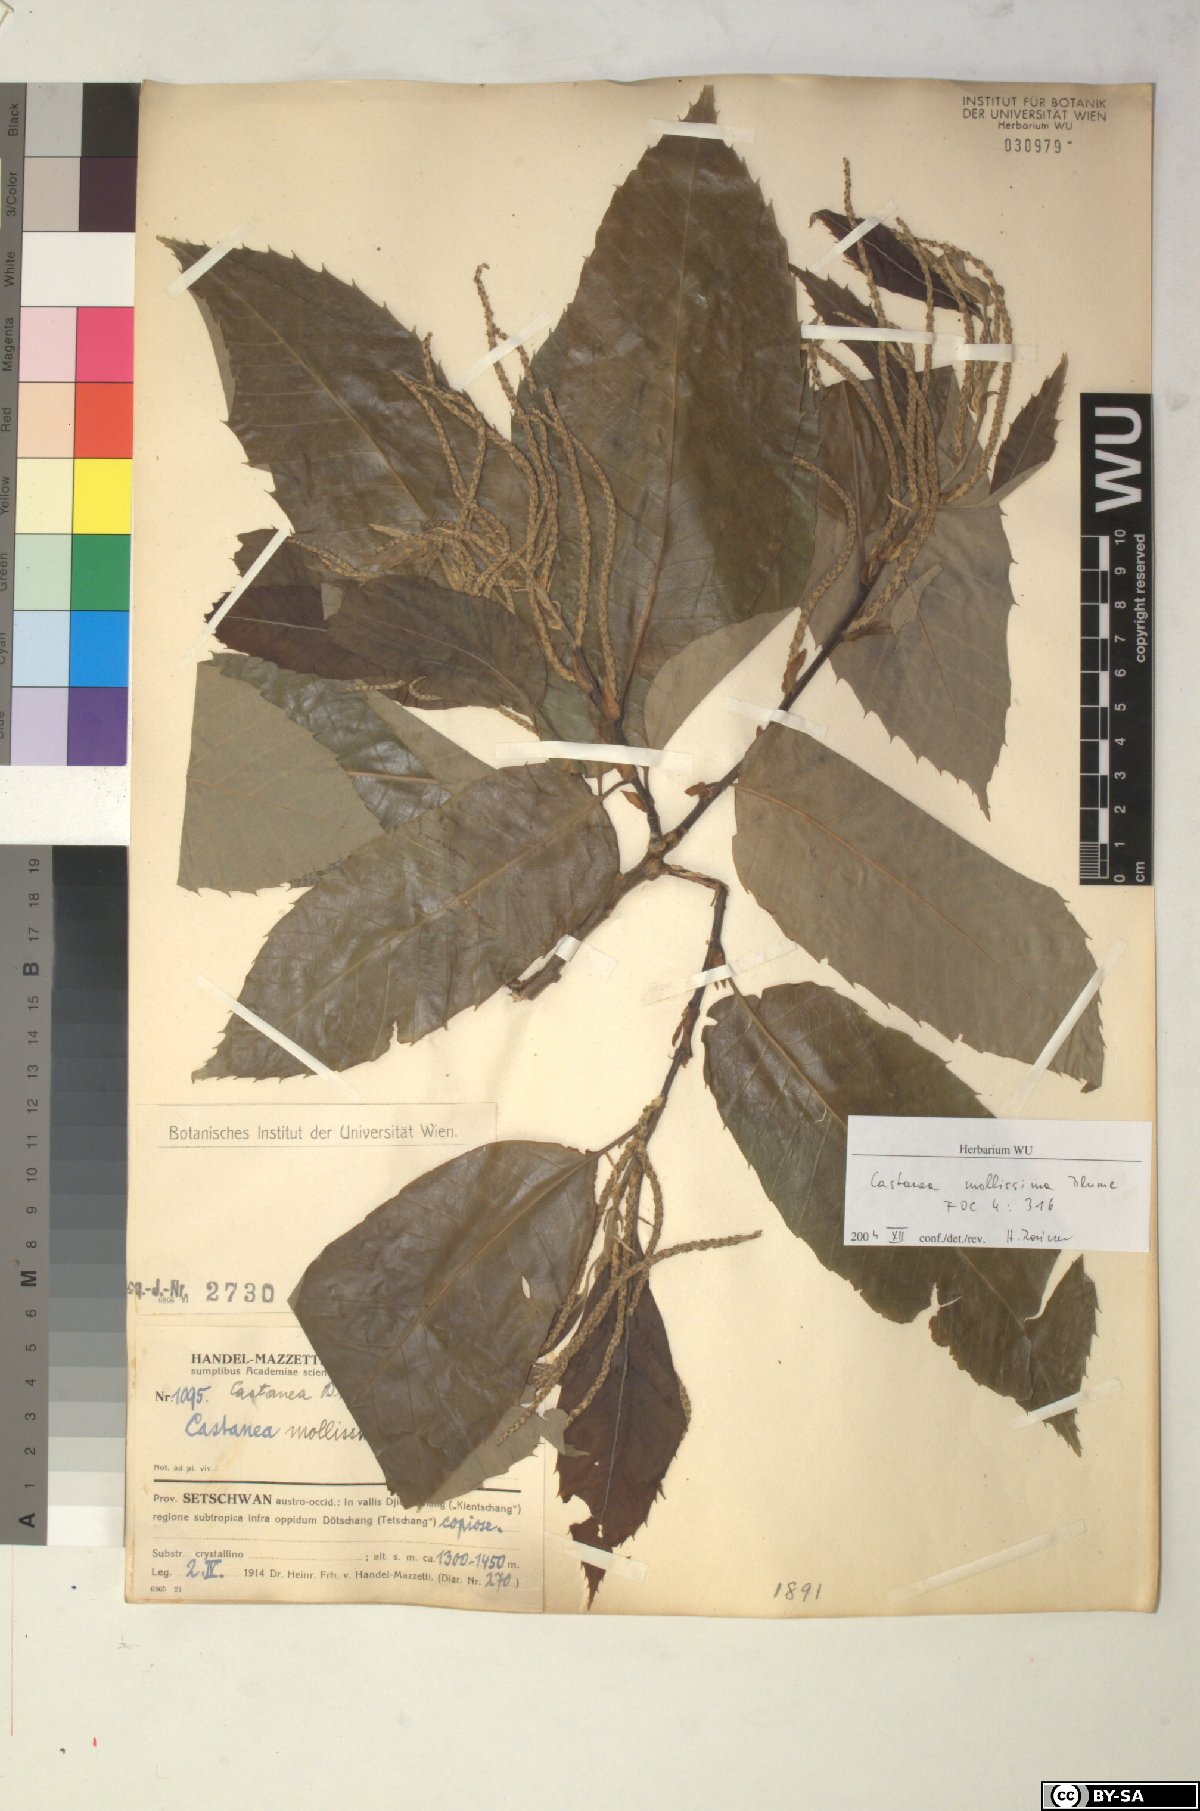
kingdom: Plantae
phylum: Tracheophyta
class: Magnoliopsida
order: Fagales
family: Fagaceae
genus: Castanea
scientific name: Castanea mollissima
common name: Chinese chestnut
